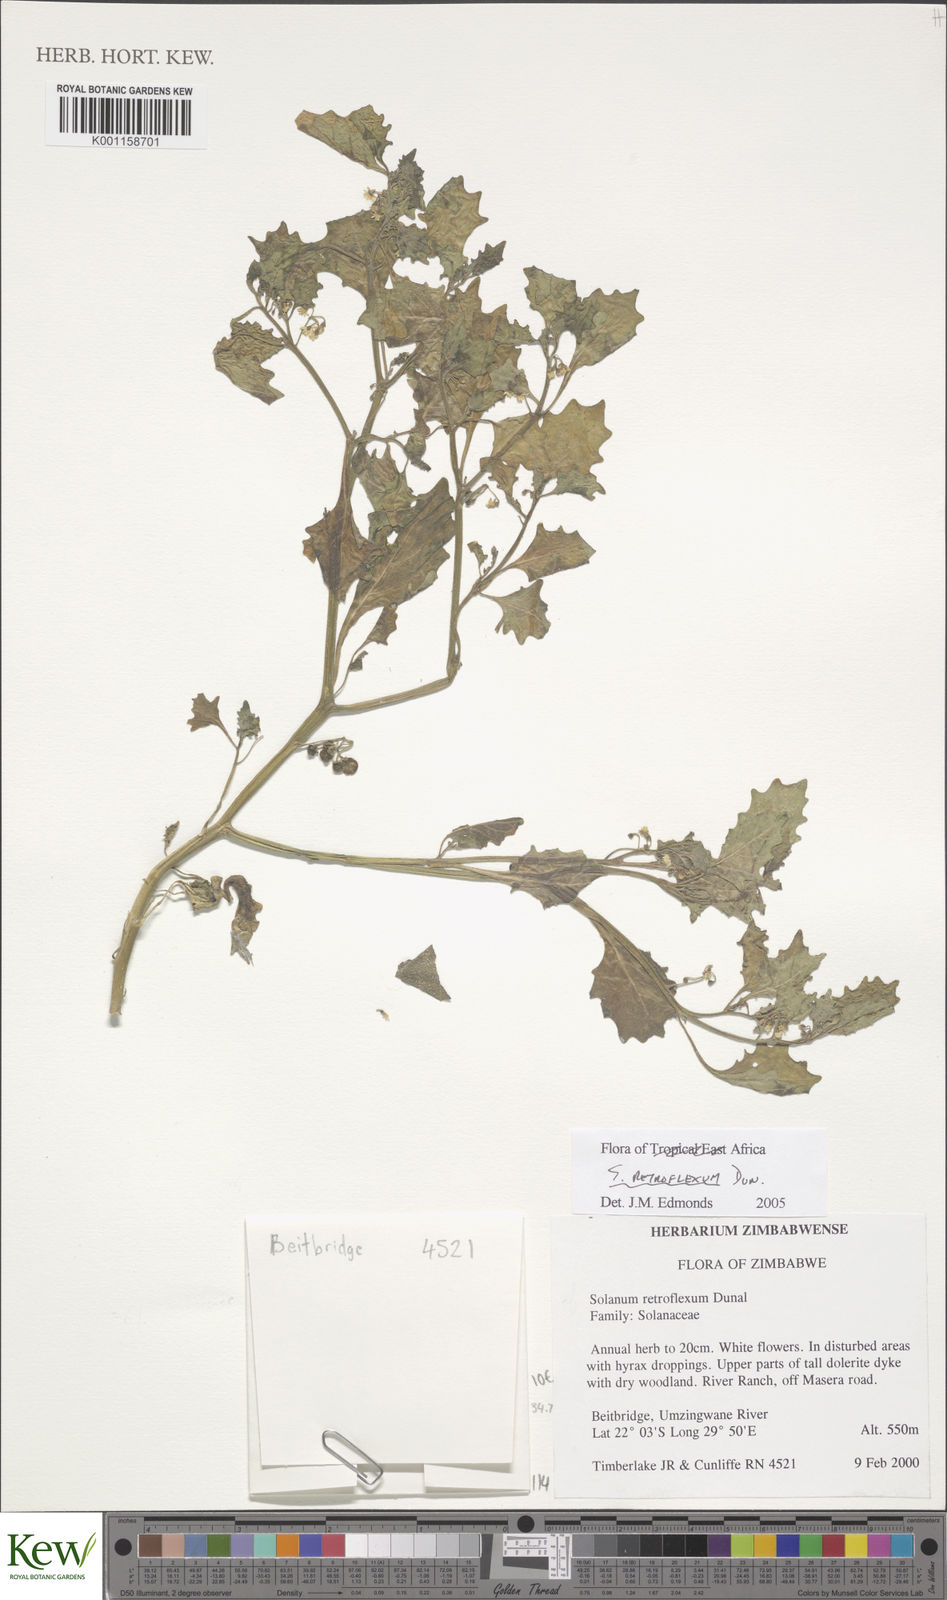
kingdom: Plantae
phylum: Tracheophyta
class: Magnoliopsida
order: Solanales
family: Solanaceae
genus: Solanum
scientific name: Solanum retroflexum
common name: Wonderberry
